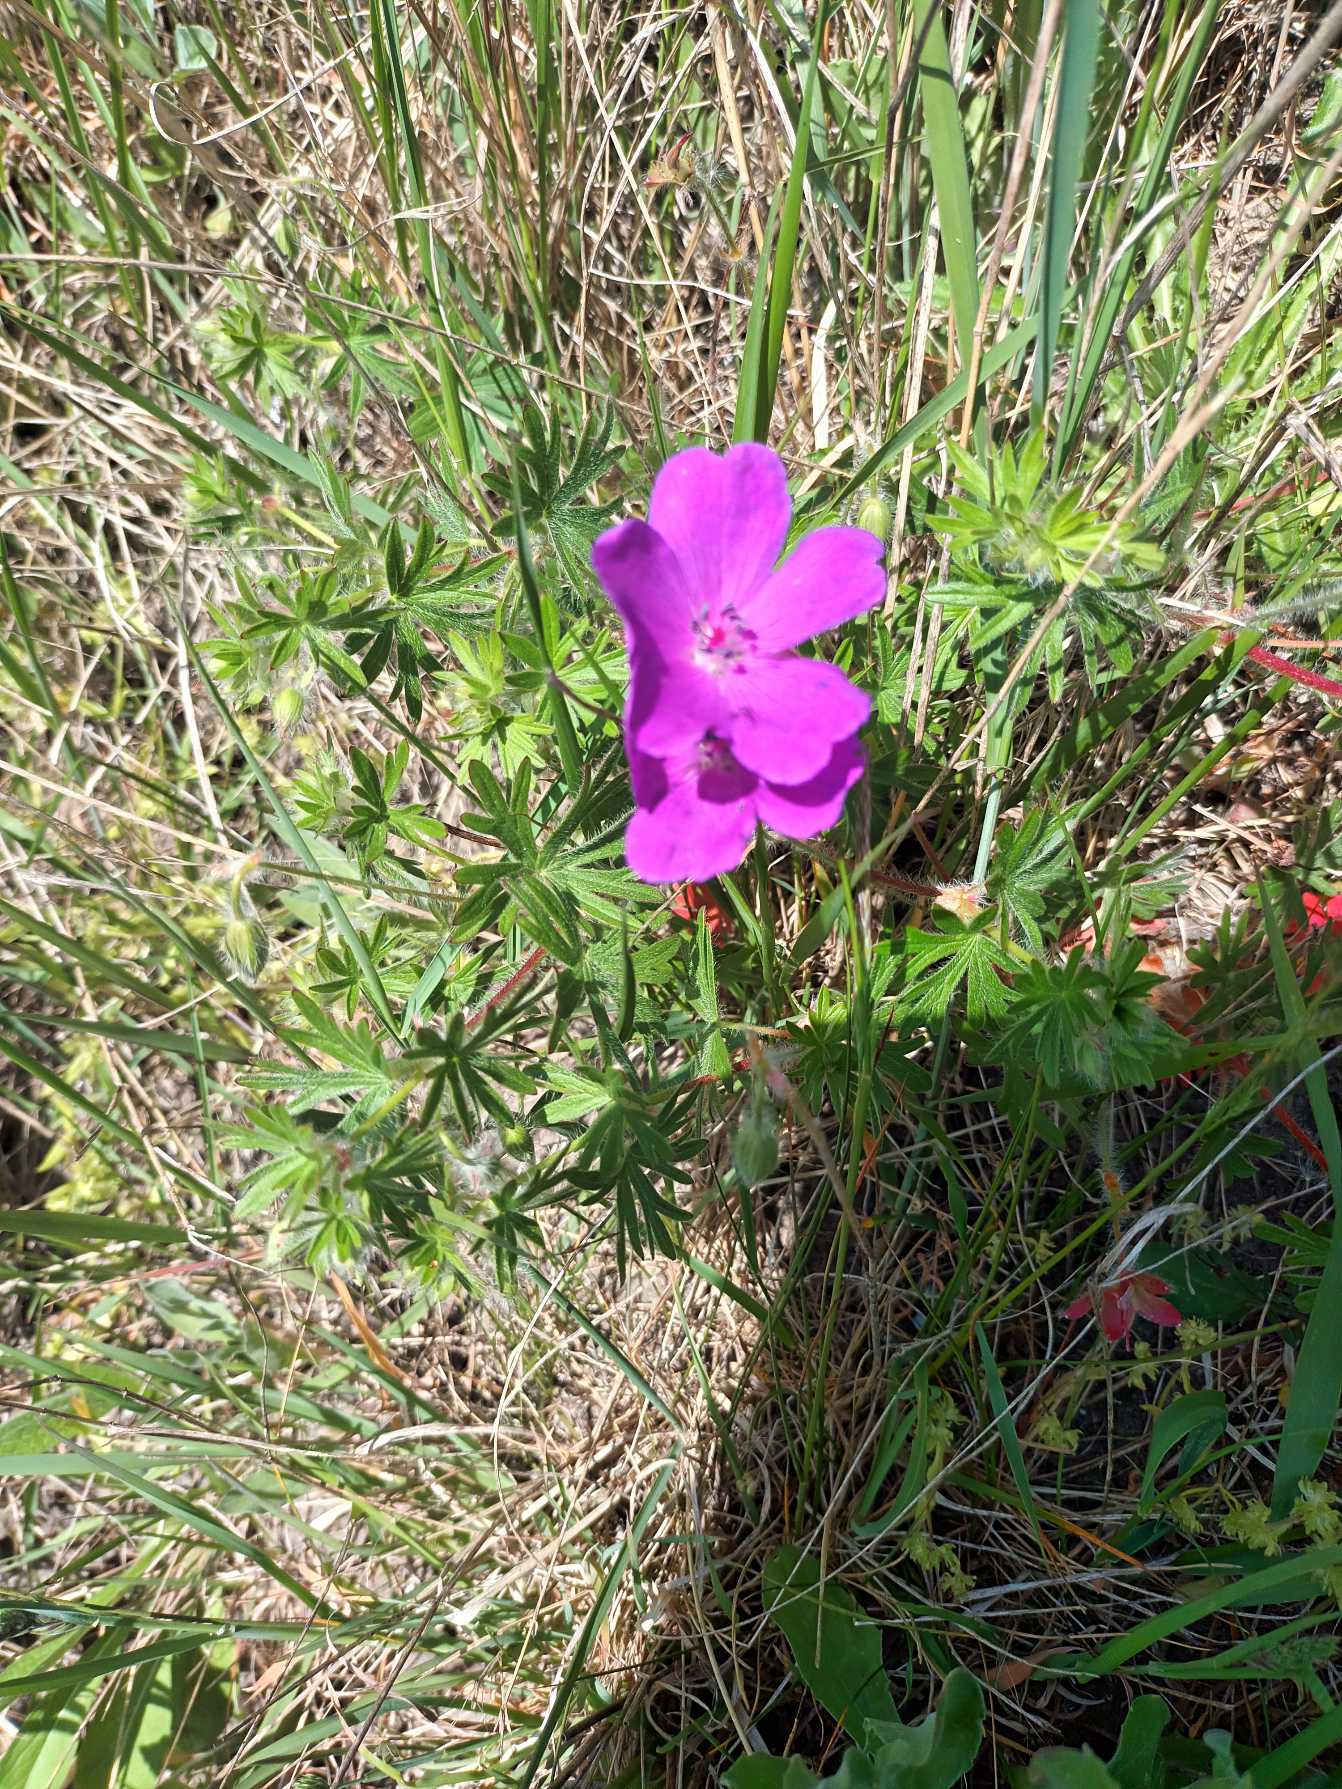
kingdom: Plantae
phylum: Tracheophyta
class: Magnoliopsida
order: Geraniales
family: Geraniaceae
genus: Geranium
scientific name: Geranium sanguineum
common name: Blodrød storkenæb
